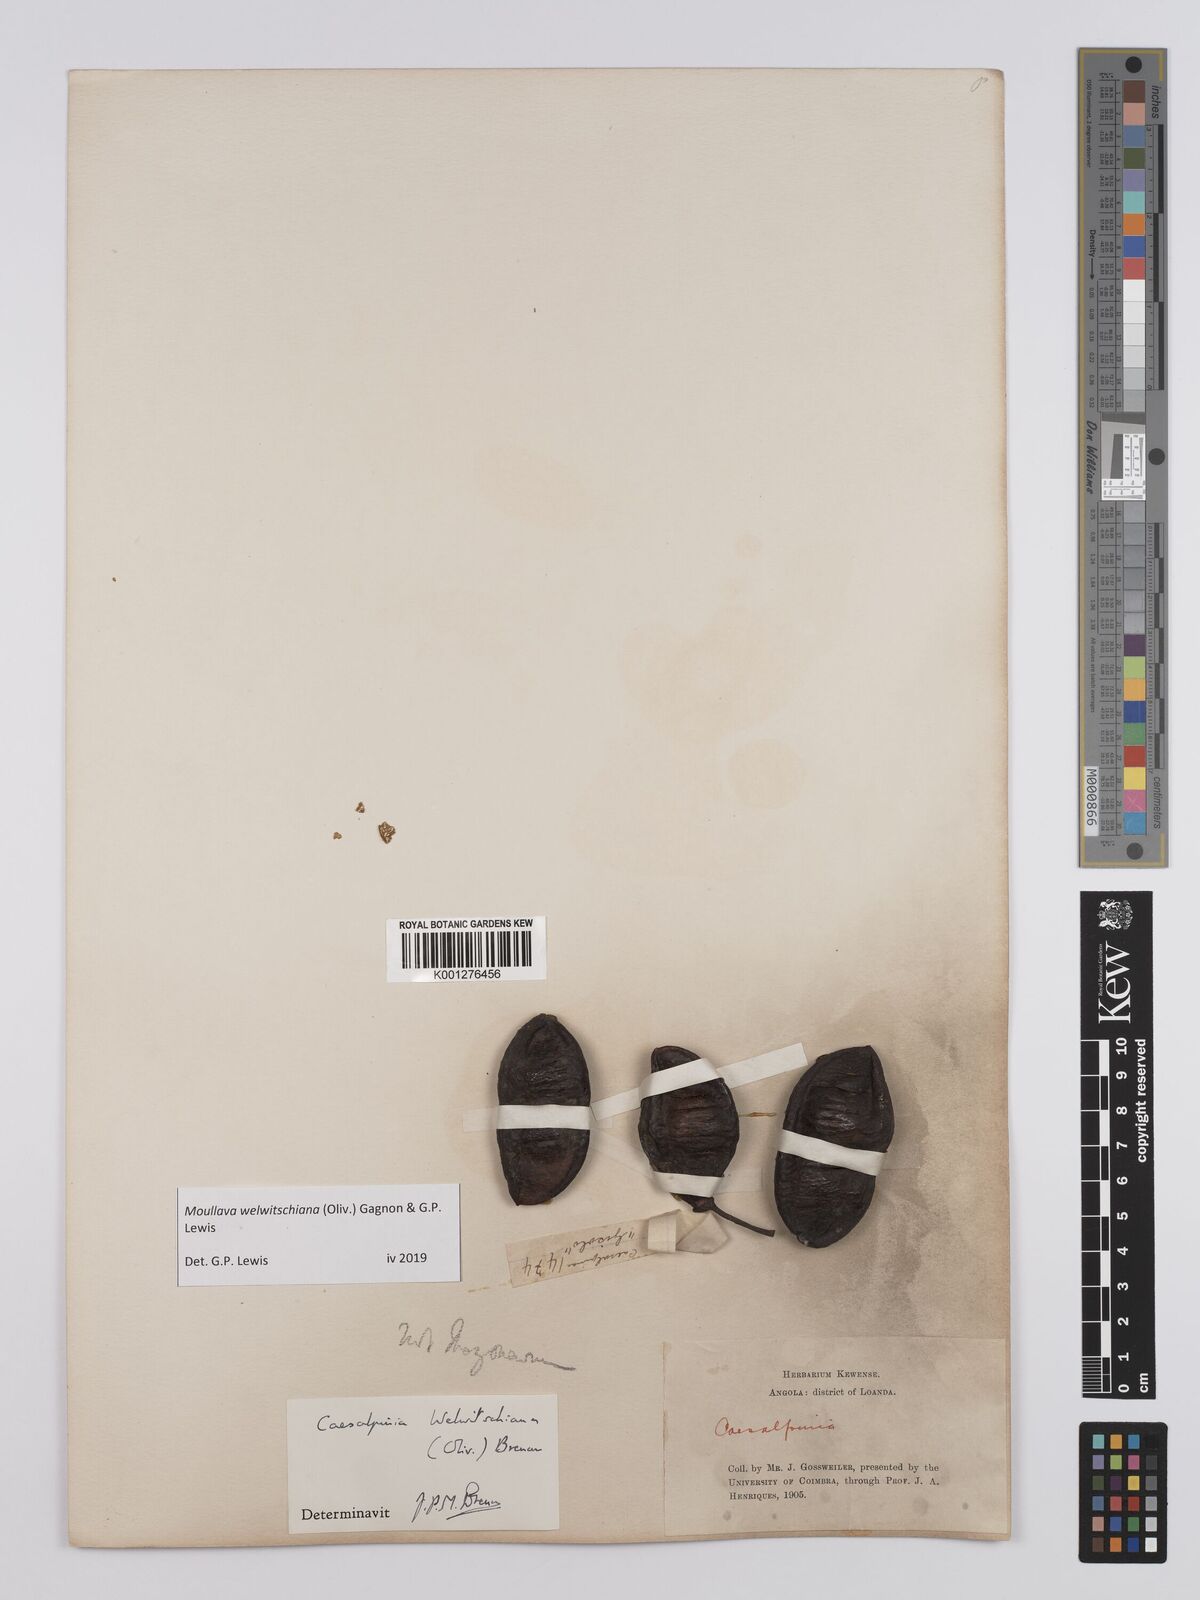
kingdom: Plantae
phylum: Tracheophyta
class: Magnoliopsida
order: Fabales
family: Fabaceae
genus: Moullava
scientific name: Moullava welwitschiana
